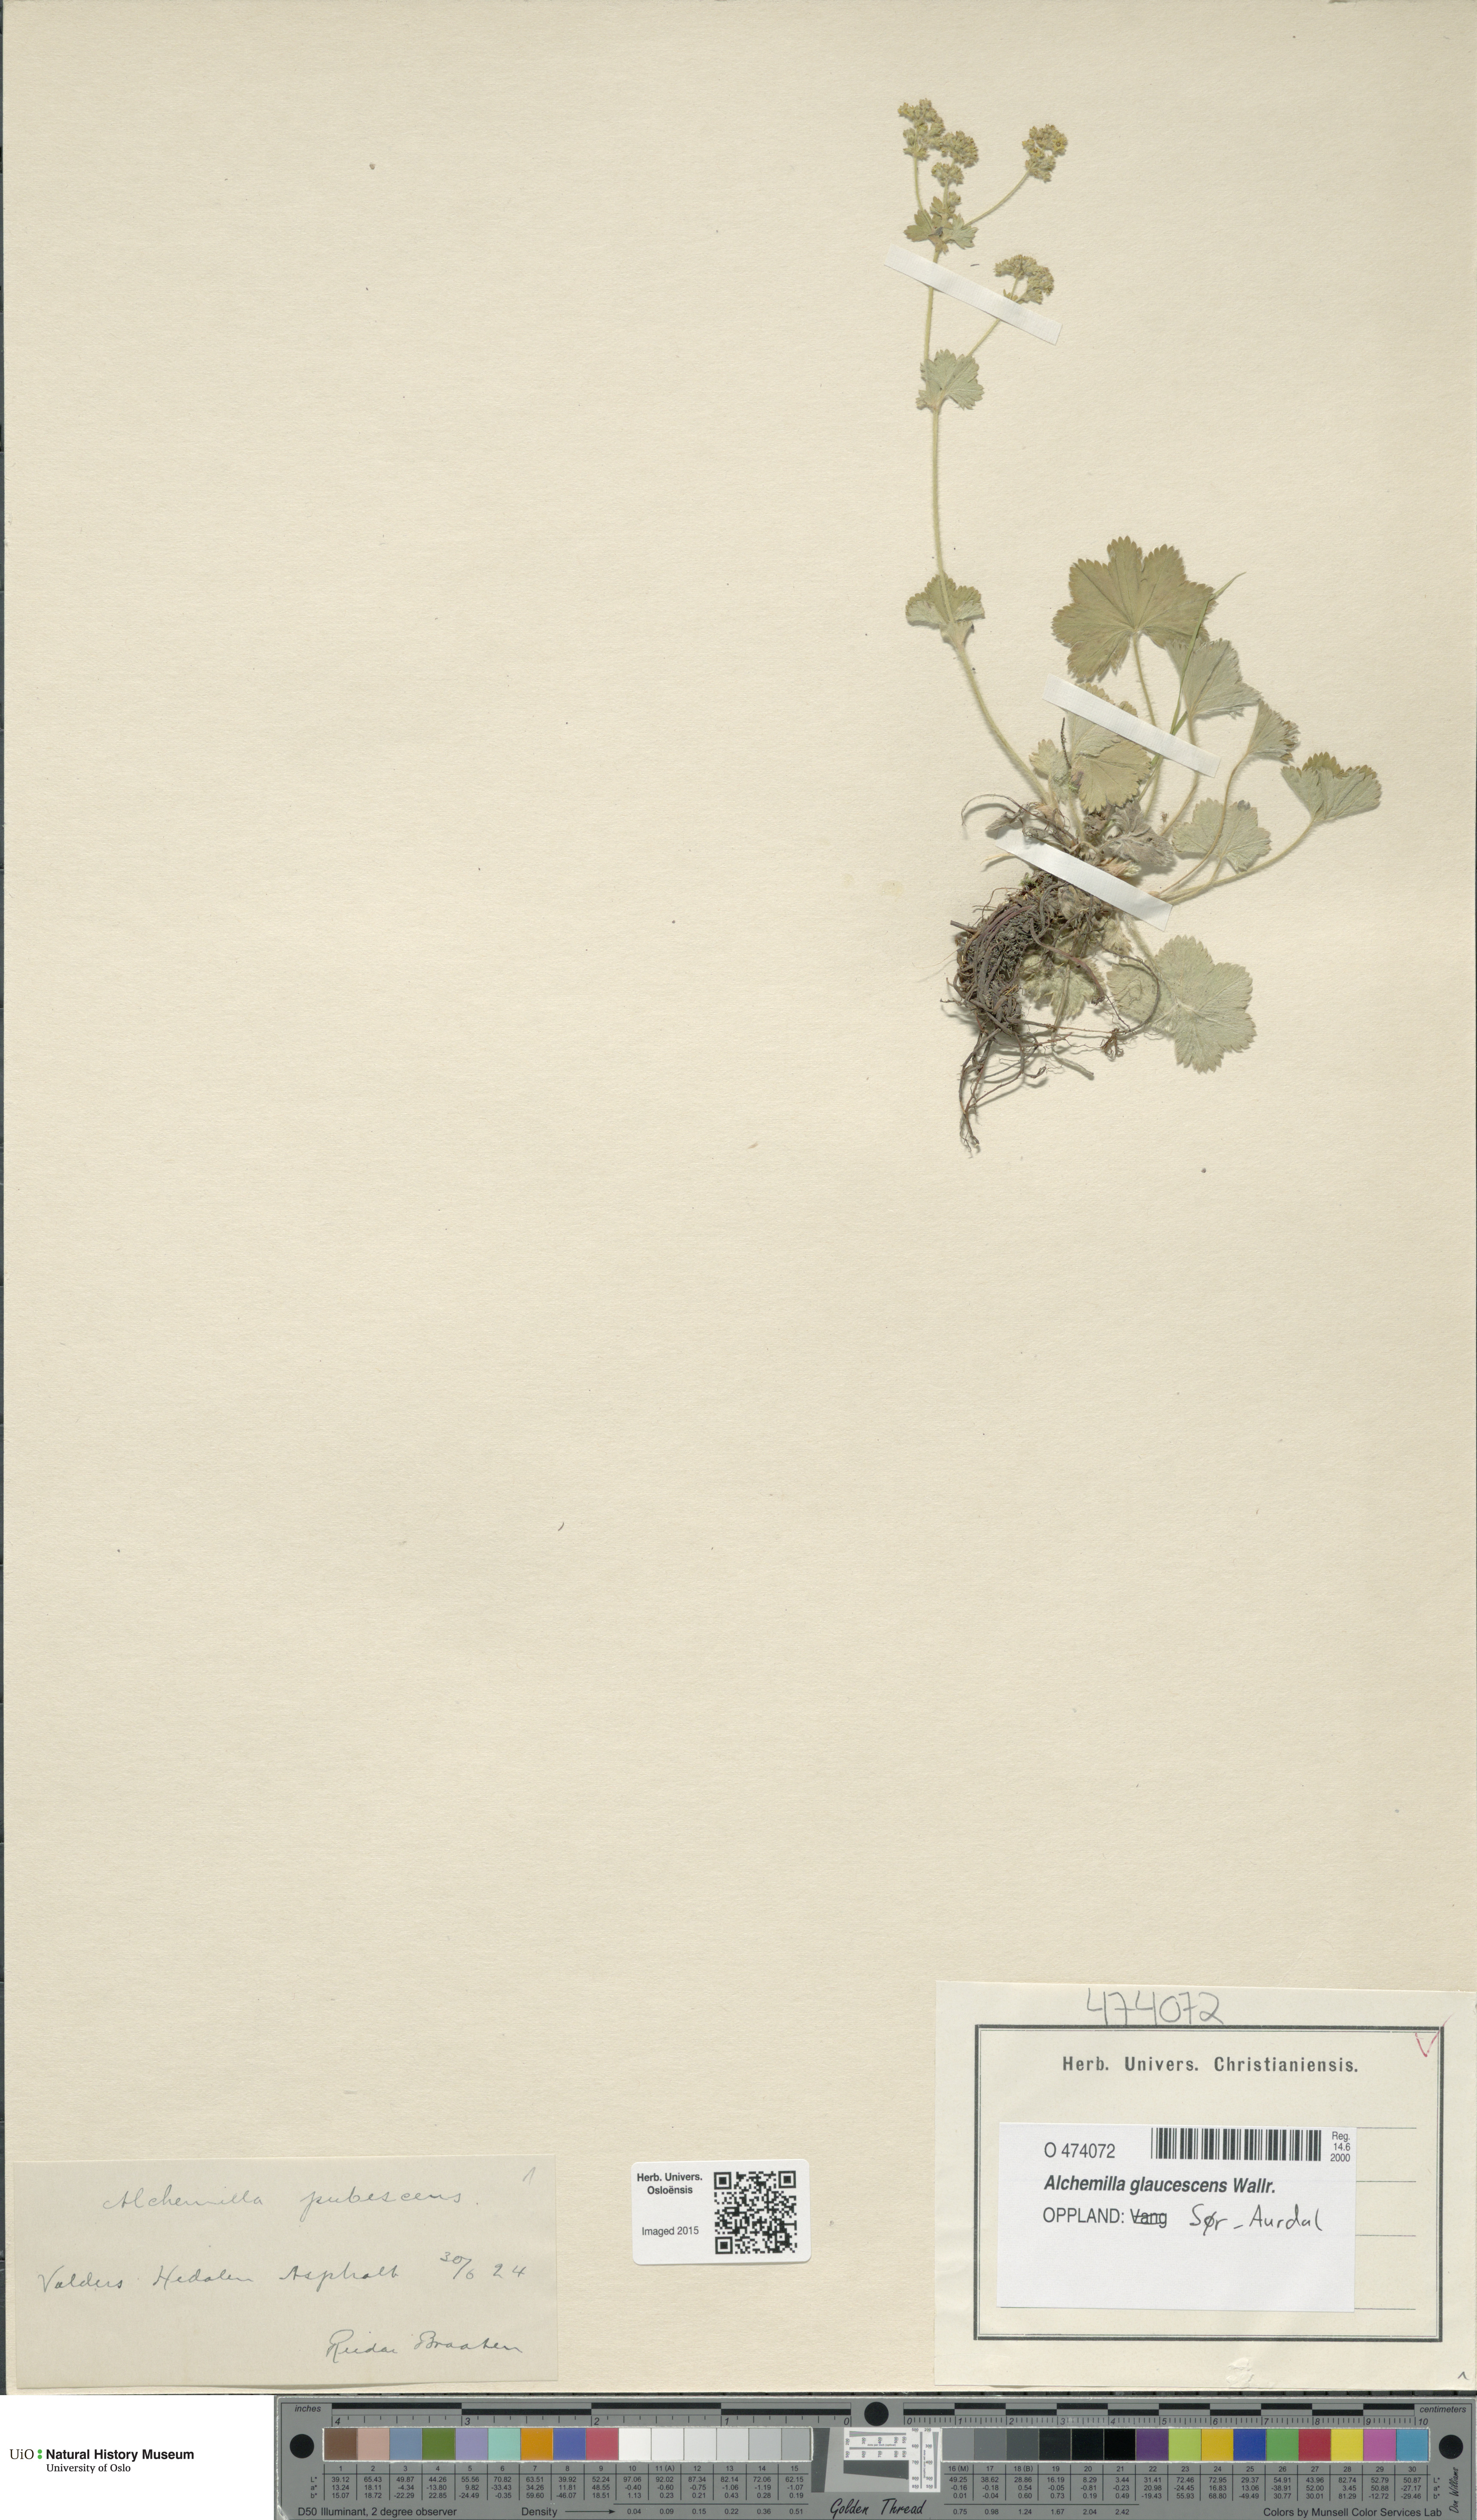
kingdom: Plantae
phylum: Tracheophyta
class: Magnoliopsida
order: Rosales
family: Rosaceae
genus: Alchemilla
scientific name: Alchemilla glaucescens
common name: Silky lady's mantle
